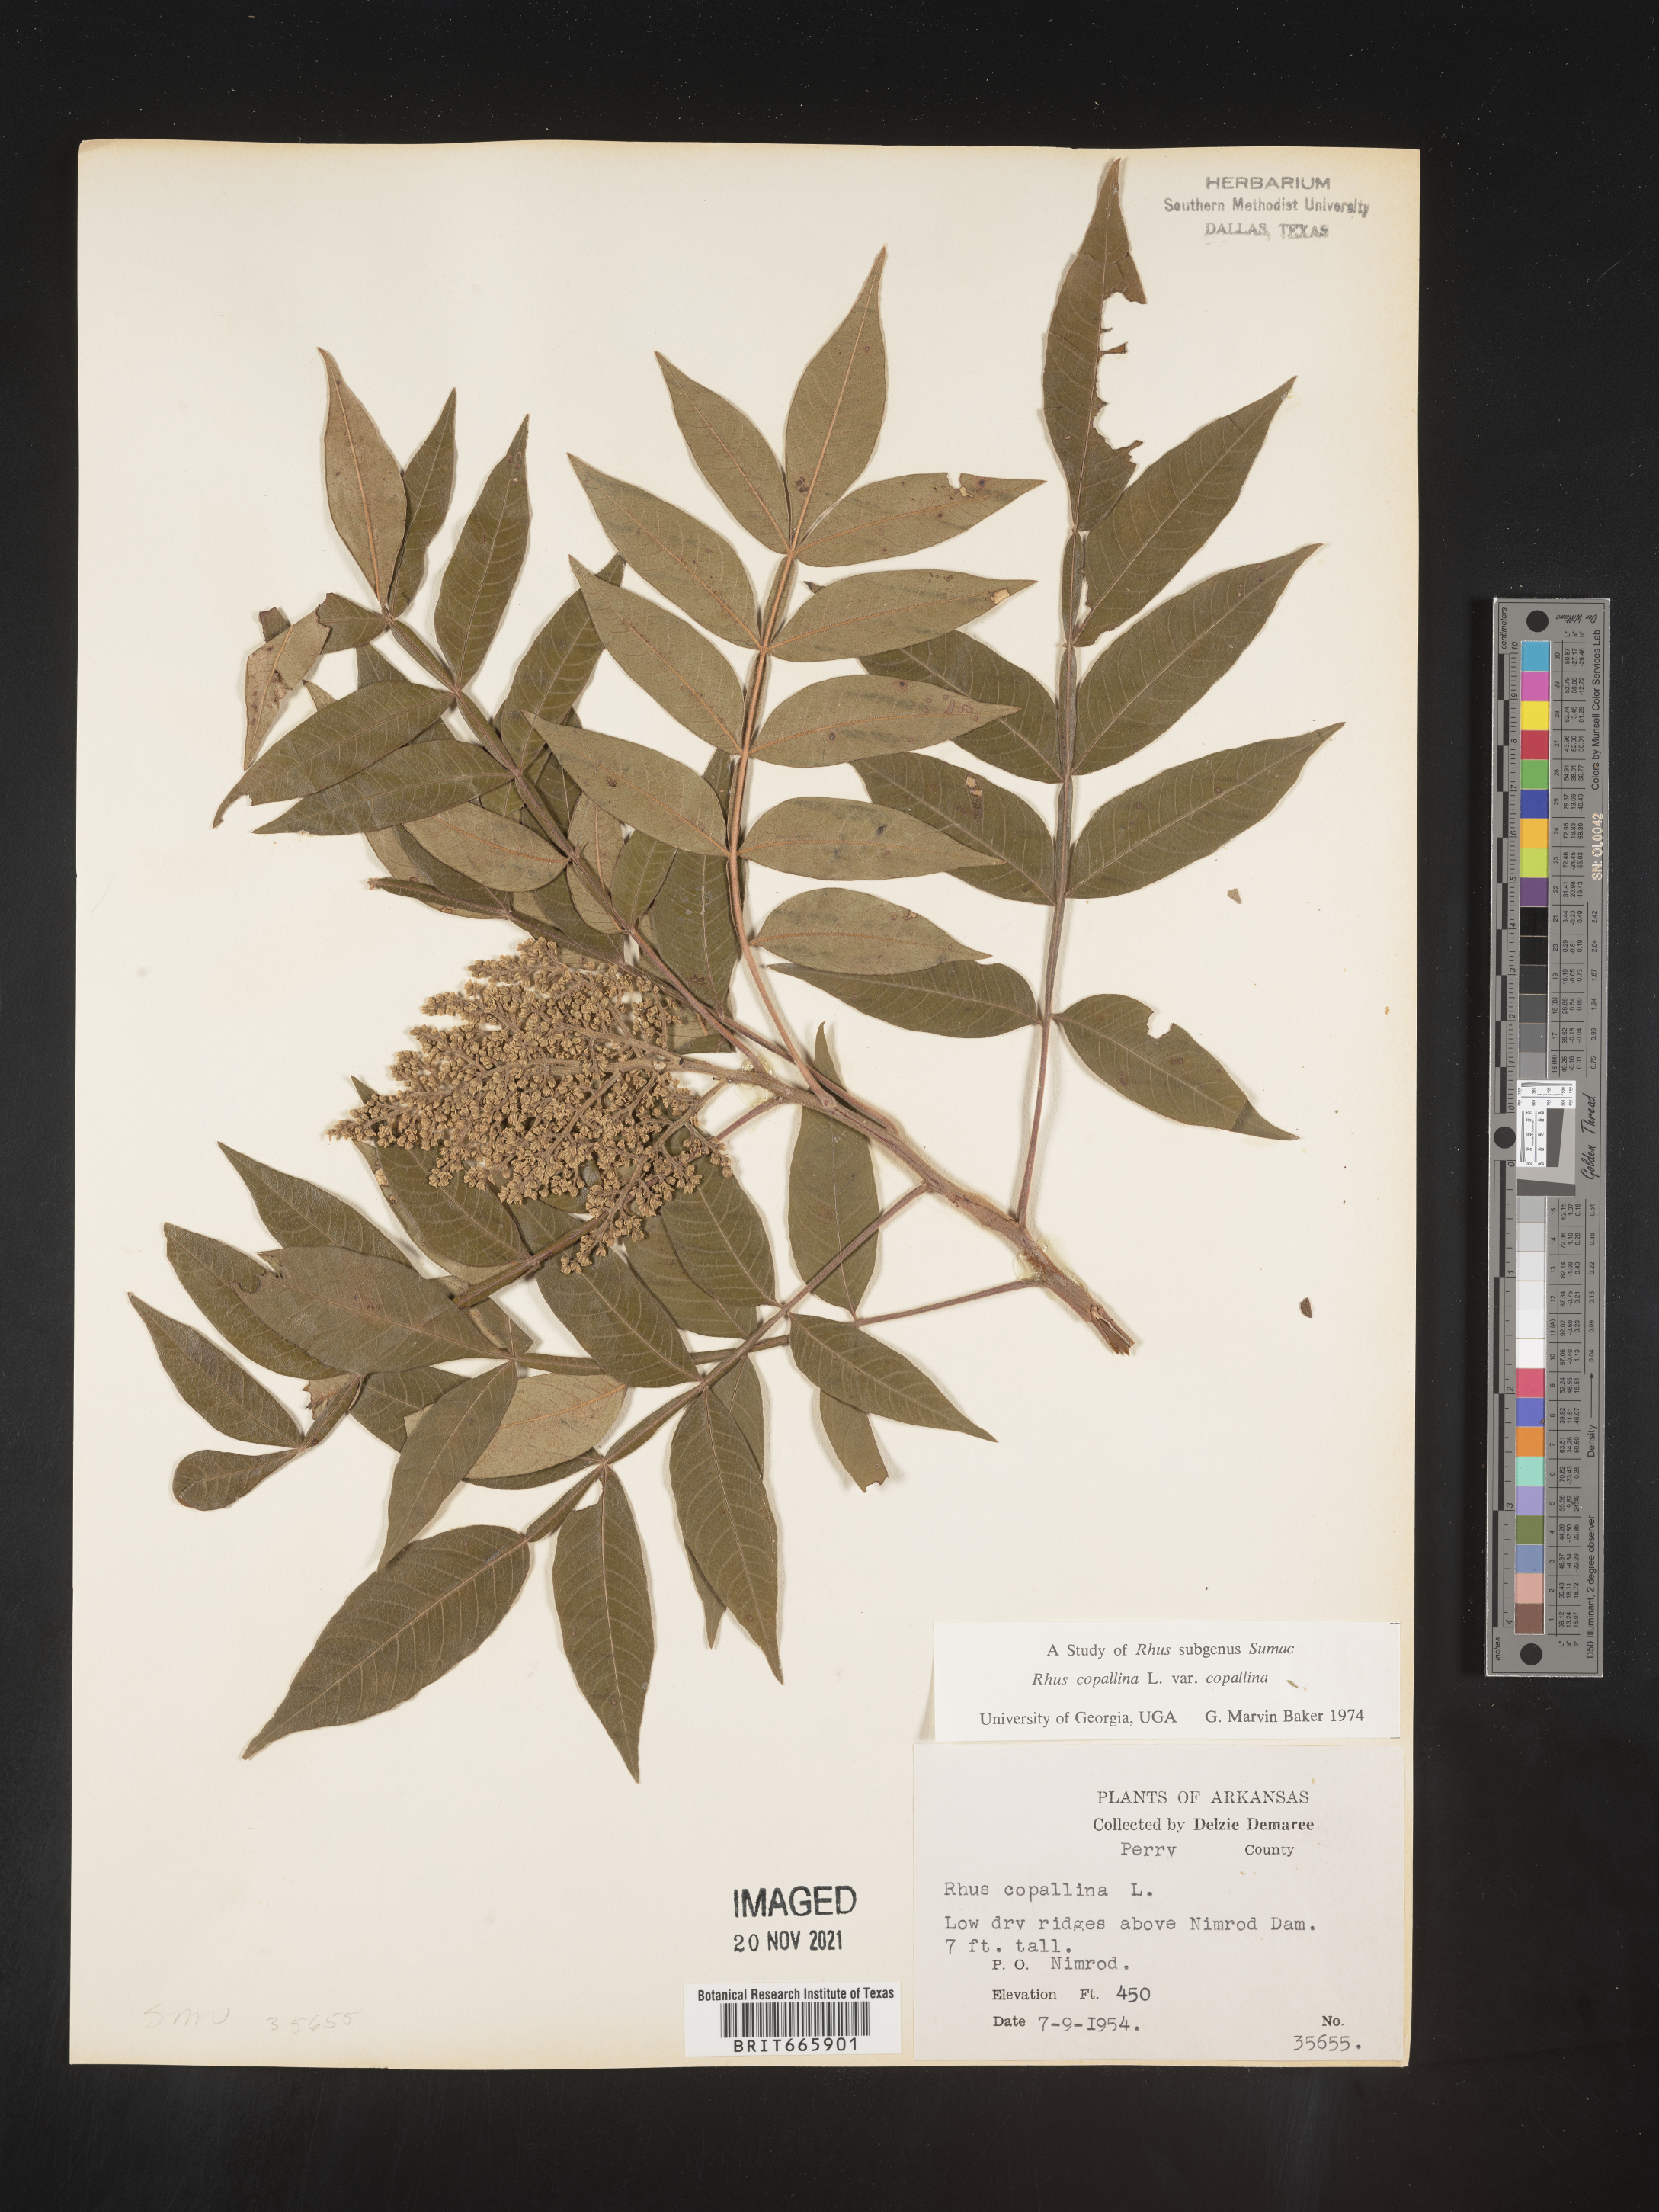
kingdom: Plantae
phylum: Tracheophyta
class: Magnoliopsida
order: Sapindales
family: Anacardiaceae
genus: Rhus
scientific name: Rhus copallina
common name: Shining sumac
